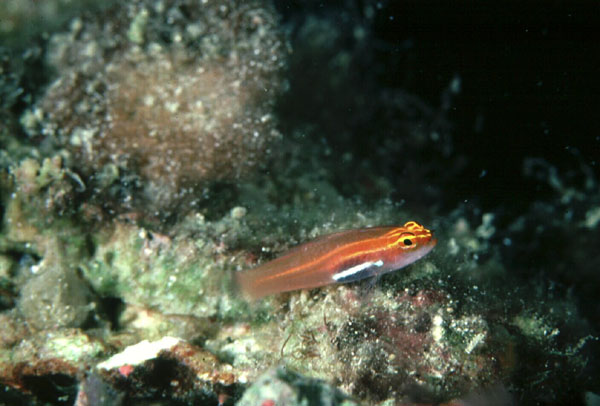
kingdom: Animalia
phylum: Chordata
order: Perciformes
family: Gobiidae
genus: Eviota
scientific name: Eviota pellucida
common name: Pellucida pygmy goby
